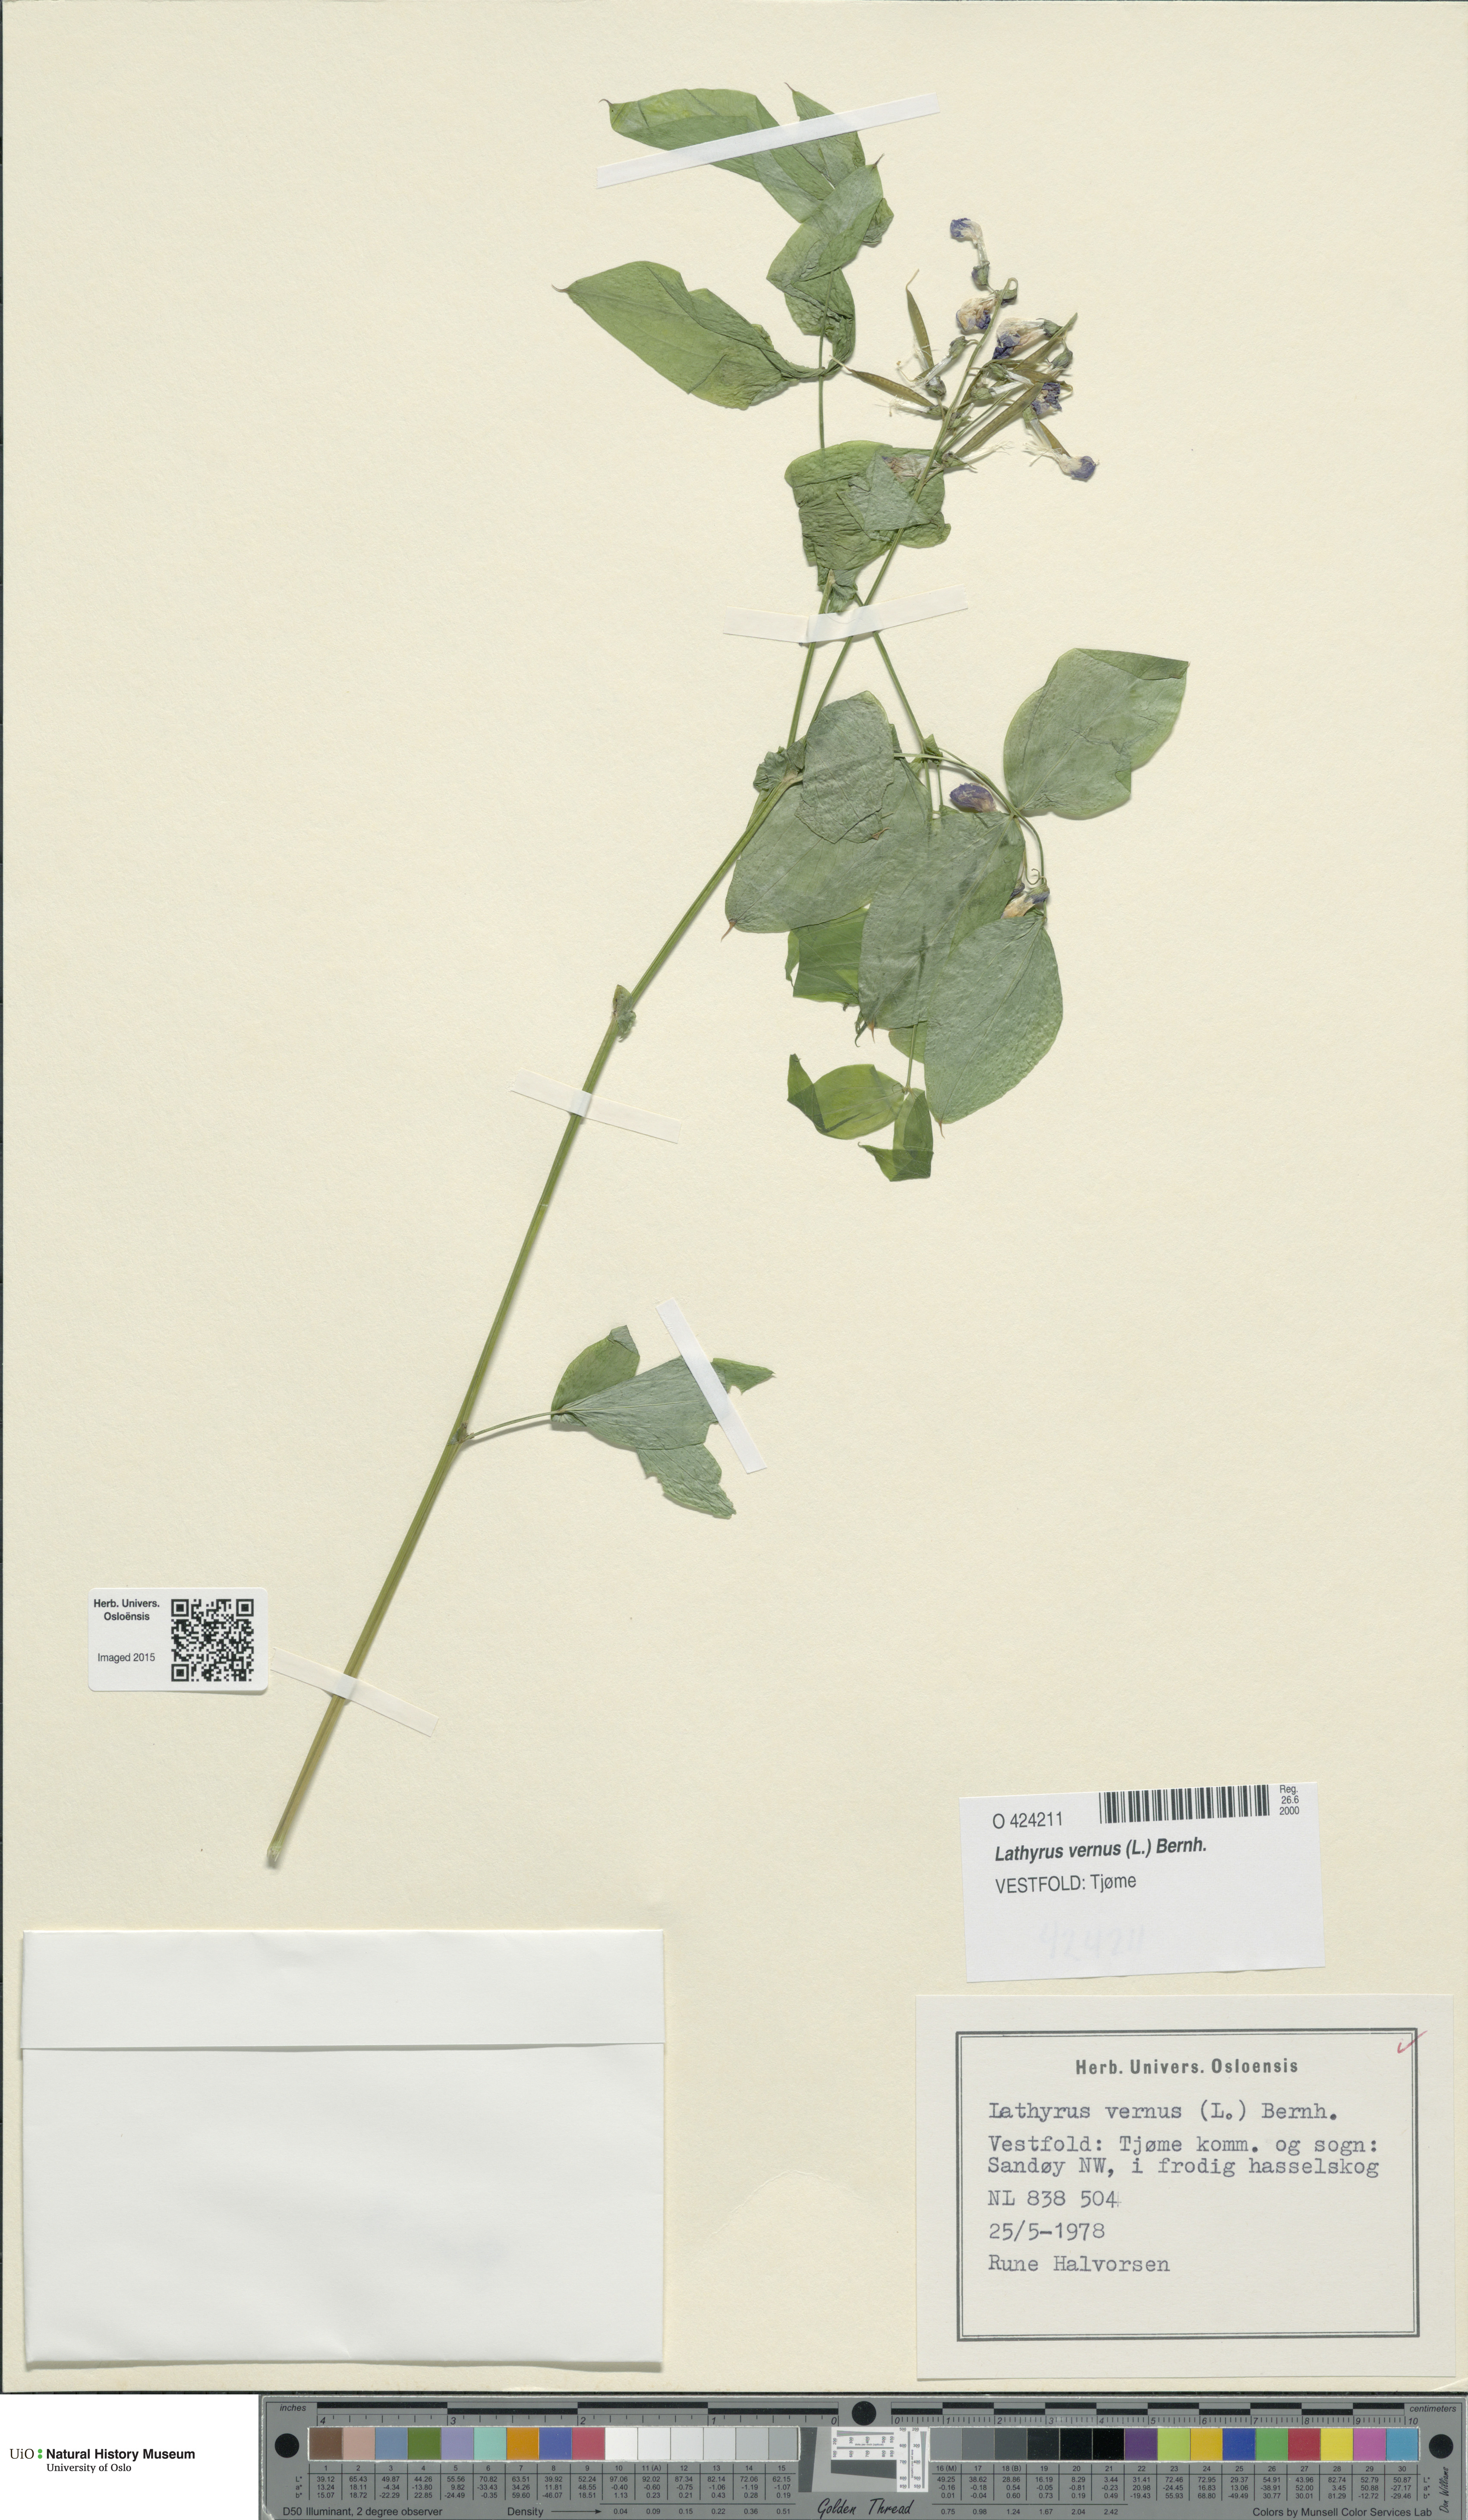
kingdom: Plantae
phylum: Tracheophyta
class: Magnoliopsida
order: Fabales
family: Fabaceae
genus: Lathyrus
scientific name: Lathyrus vernus
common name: Spring pea
